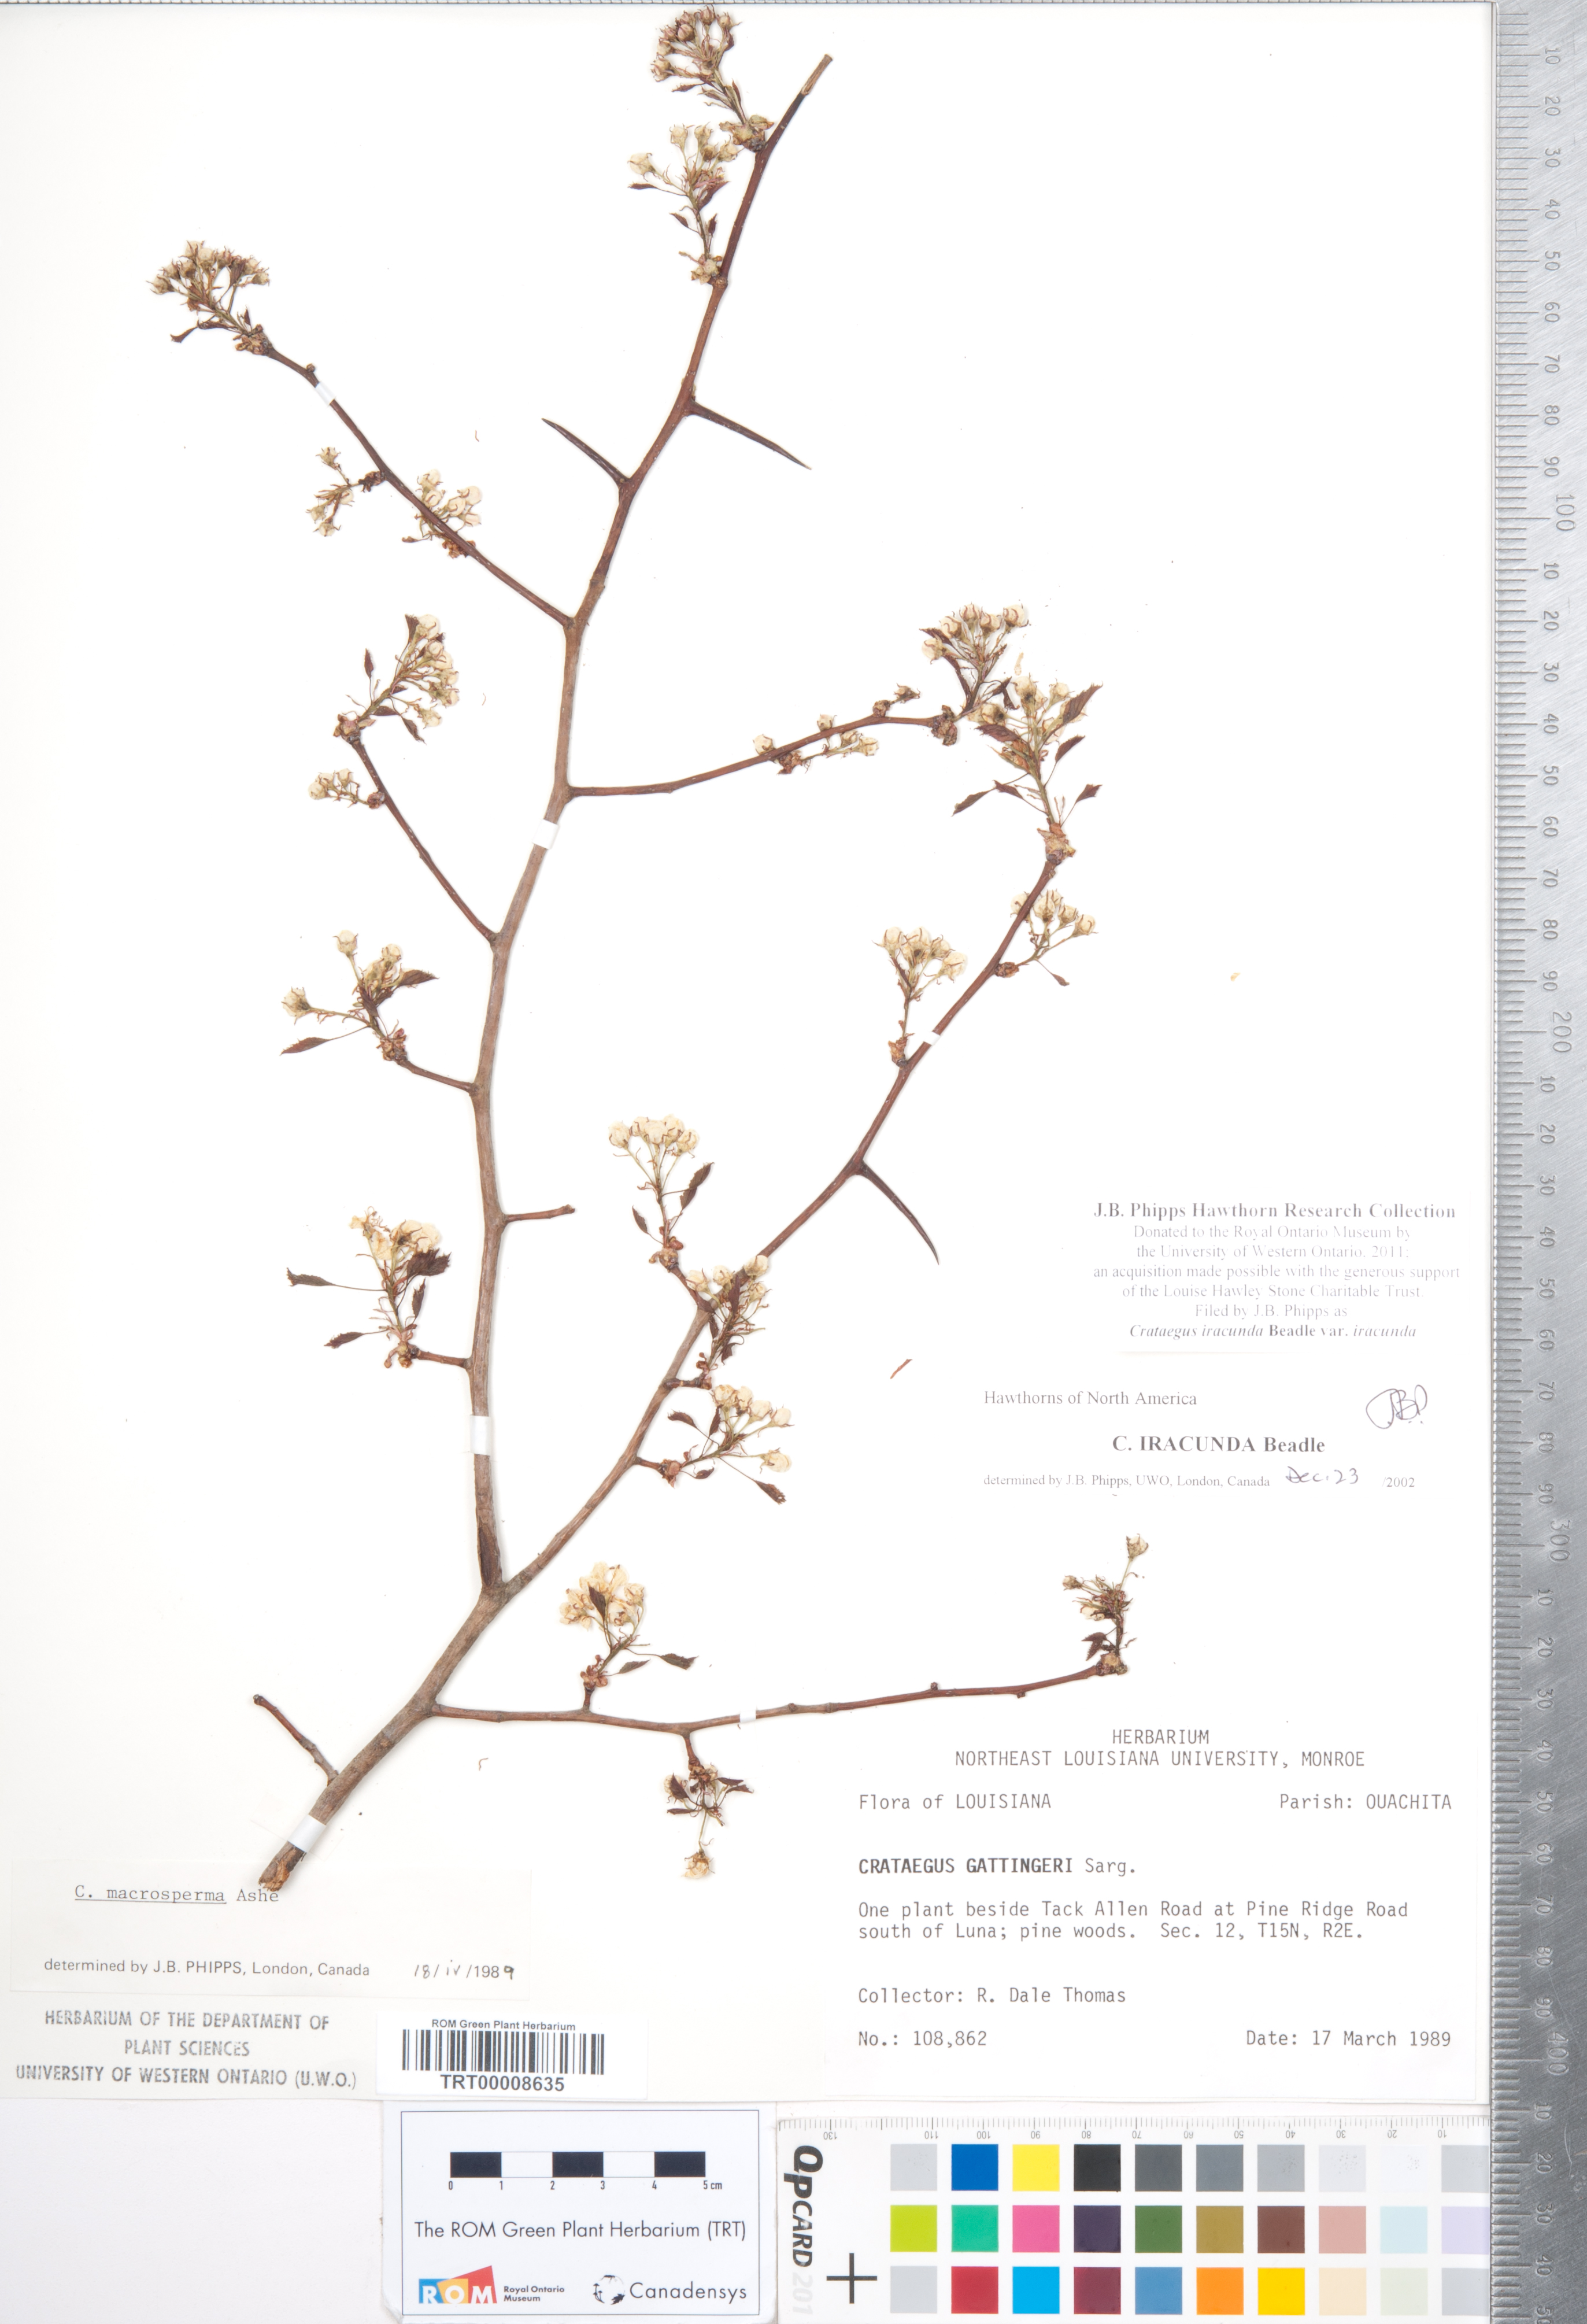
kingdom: Plantae
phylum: Tracheophyta
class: Magnoliopsida
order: Rosales
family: Rosaceae
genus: Crataegus
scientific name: Crataegus iracunda
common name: Stolon-bearing hawthorn
